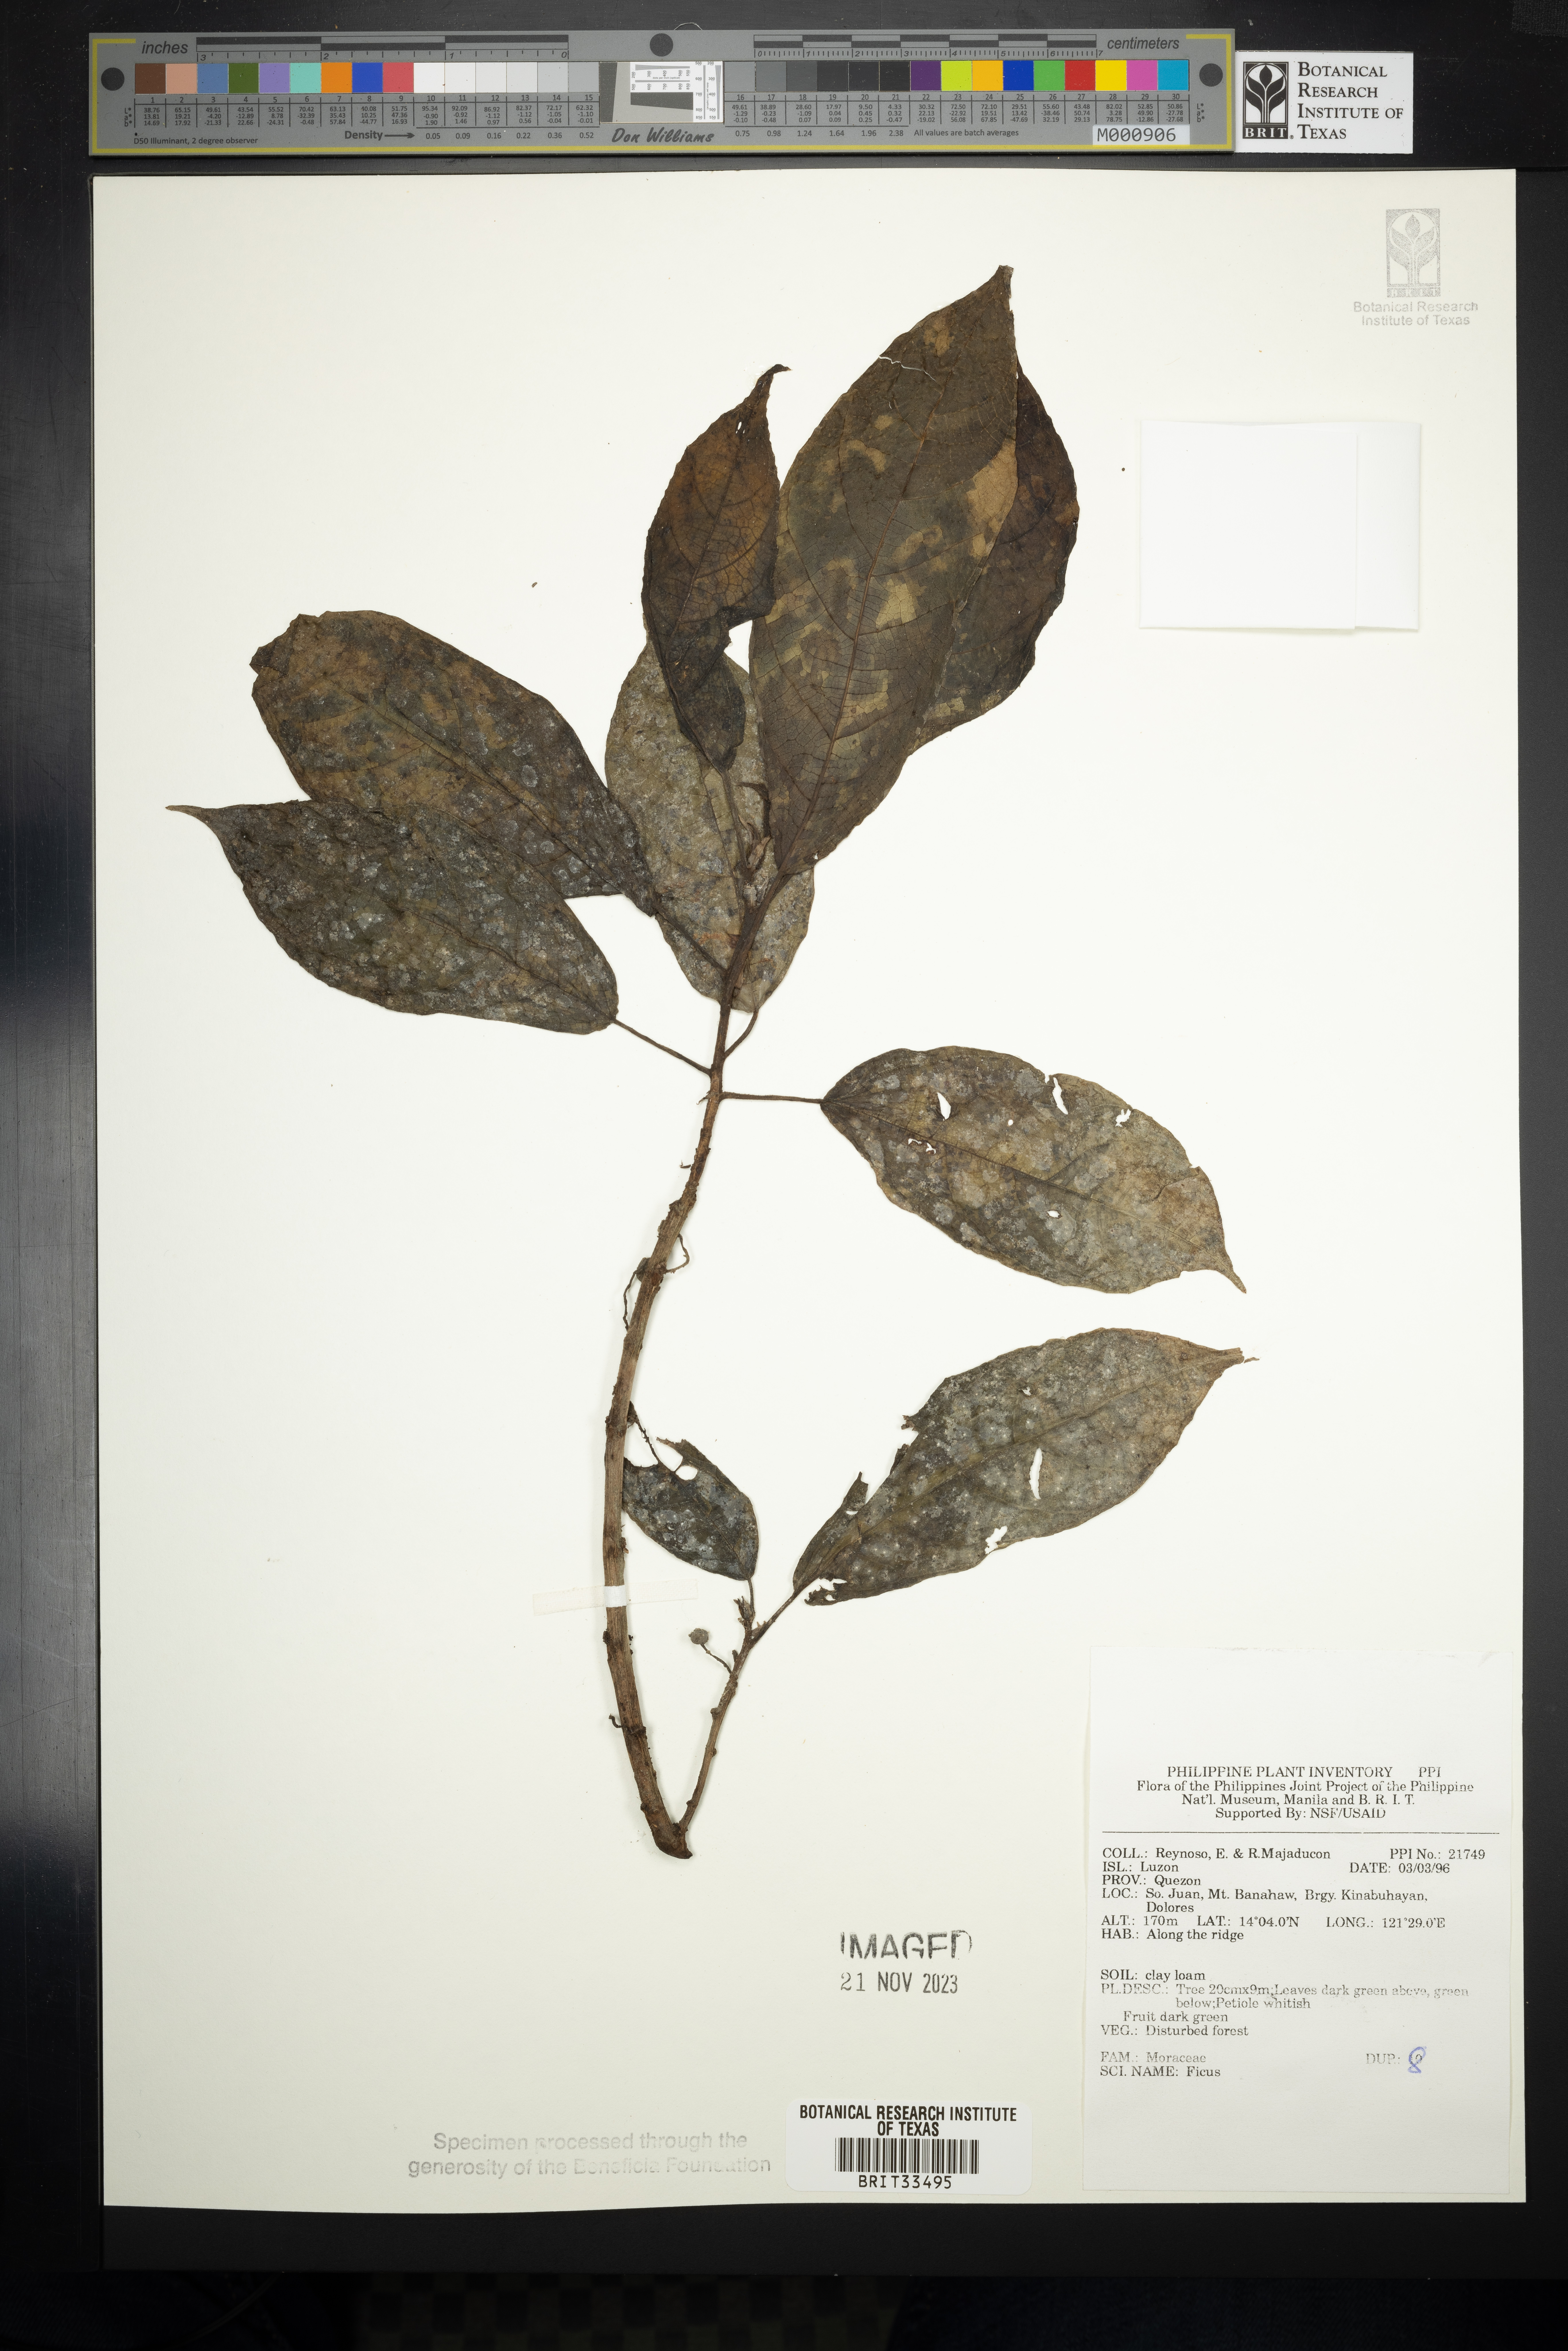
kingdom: Plantae
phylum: Tracheophyta
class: Magnoliopsida
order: Rosales
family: Moraceae
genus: Ficus
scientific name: Ficus
